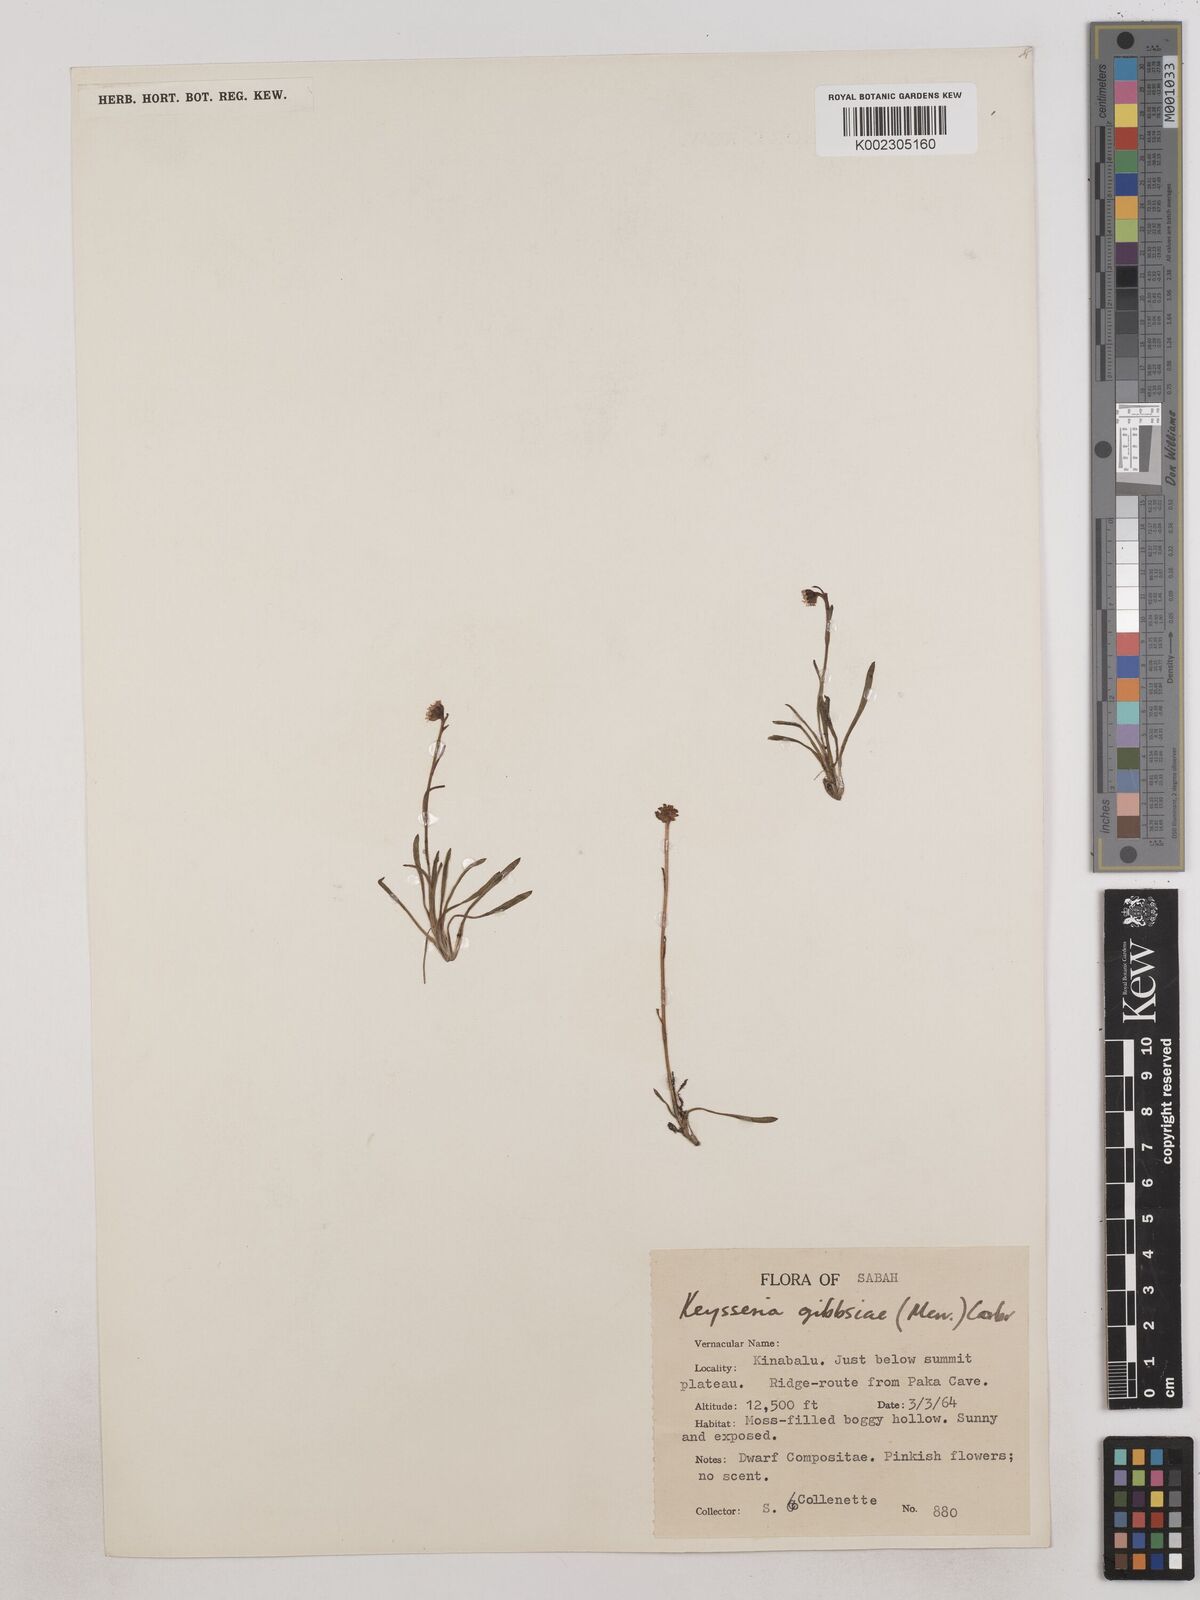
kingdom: Plantae
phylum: Tracheophyta
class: Magnoliopsida
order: Asterales
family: Asteraceae
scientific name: Asteraceae
